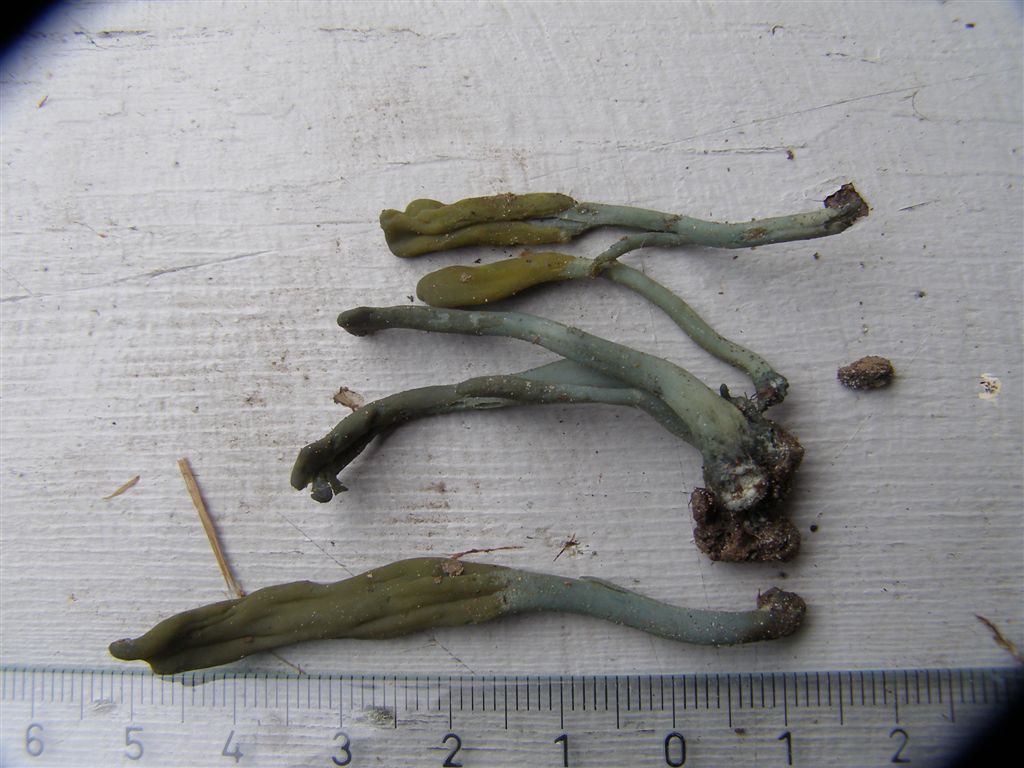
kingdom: Fungi
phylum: Ascomycota
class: Leotiomycetes
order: Leotiales
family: Leotiaceae
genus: Microglossum
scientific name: Microglossum olivaceum
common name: olivenbrun farvetunge
